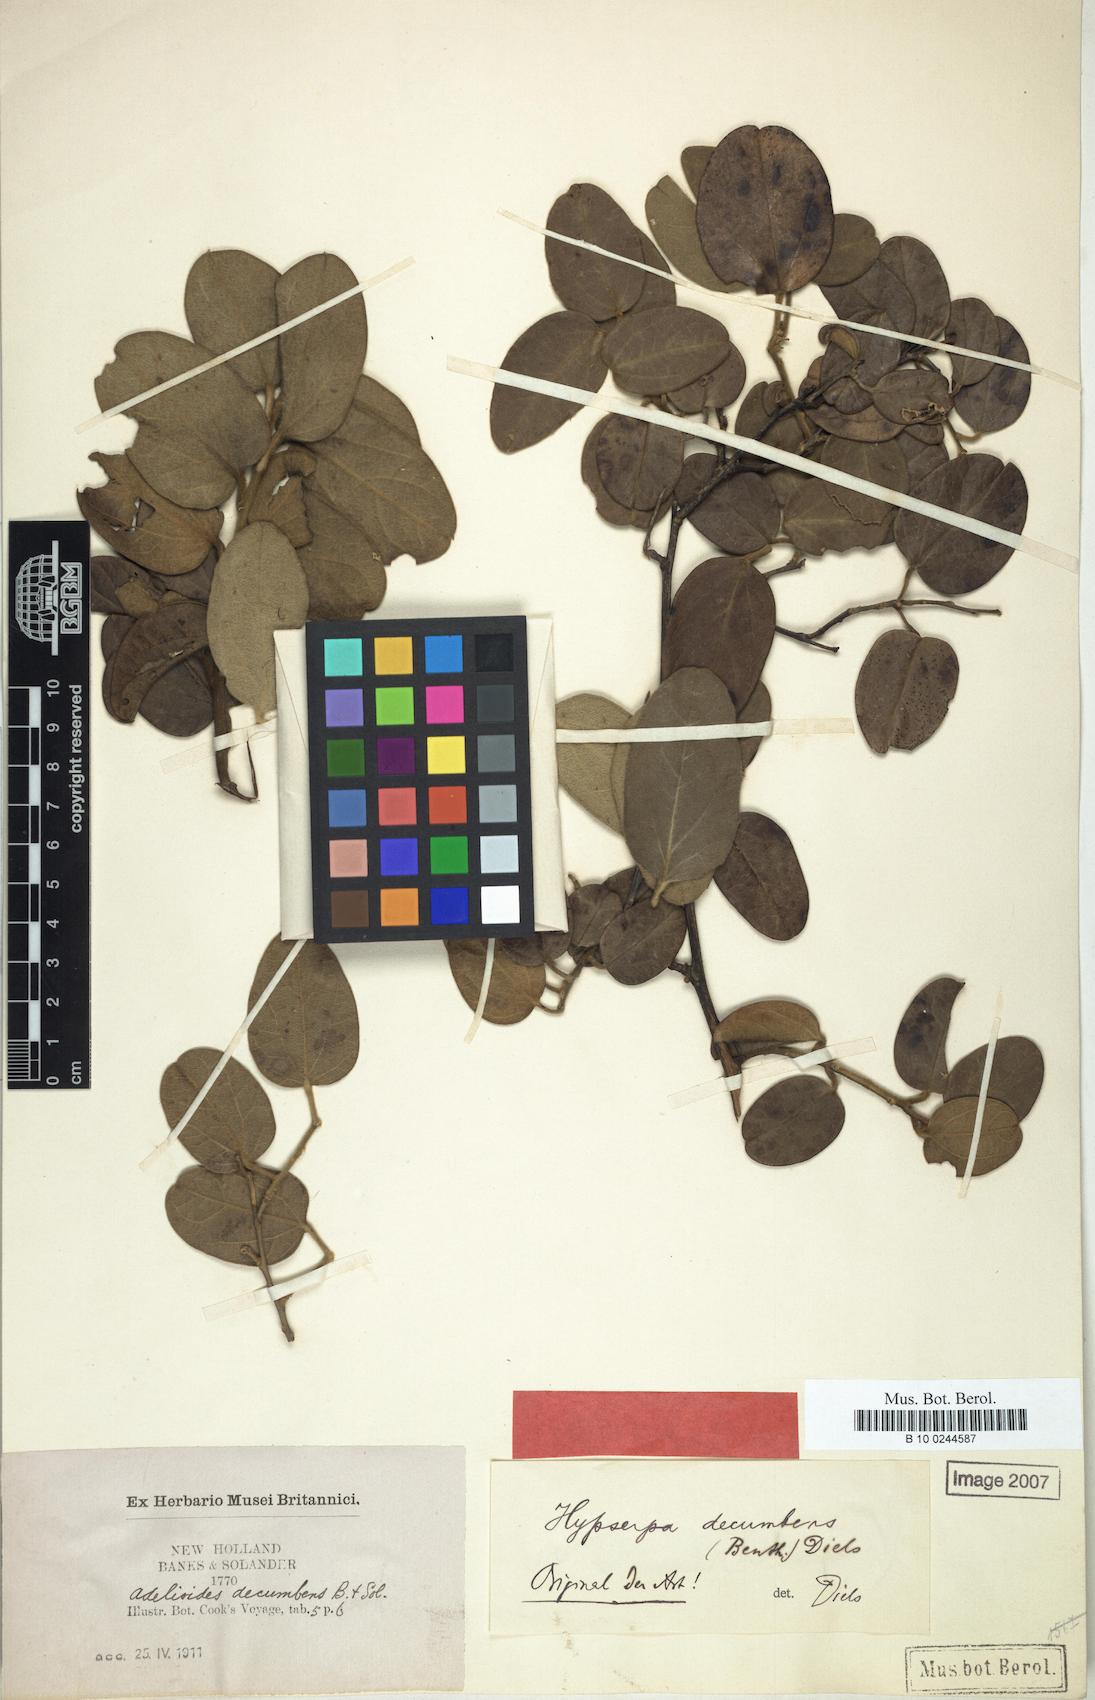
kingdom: Plantae
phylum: Tracheophyta
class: Magnoliopsida
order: Ranunculales
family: Menispermaceae
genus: Hypserpa
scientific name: Hypserpa decumbens
